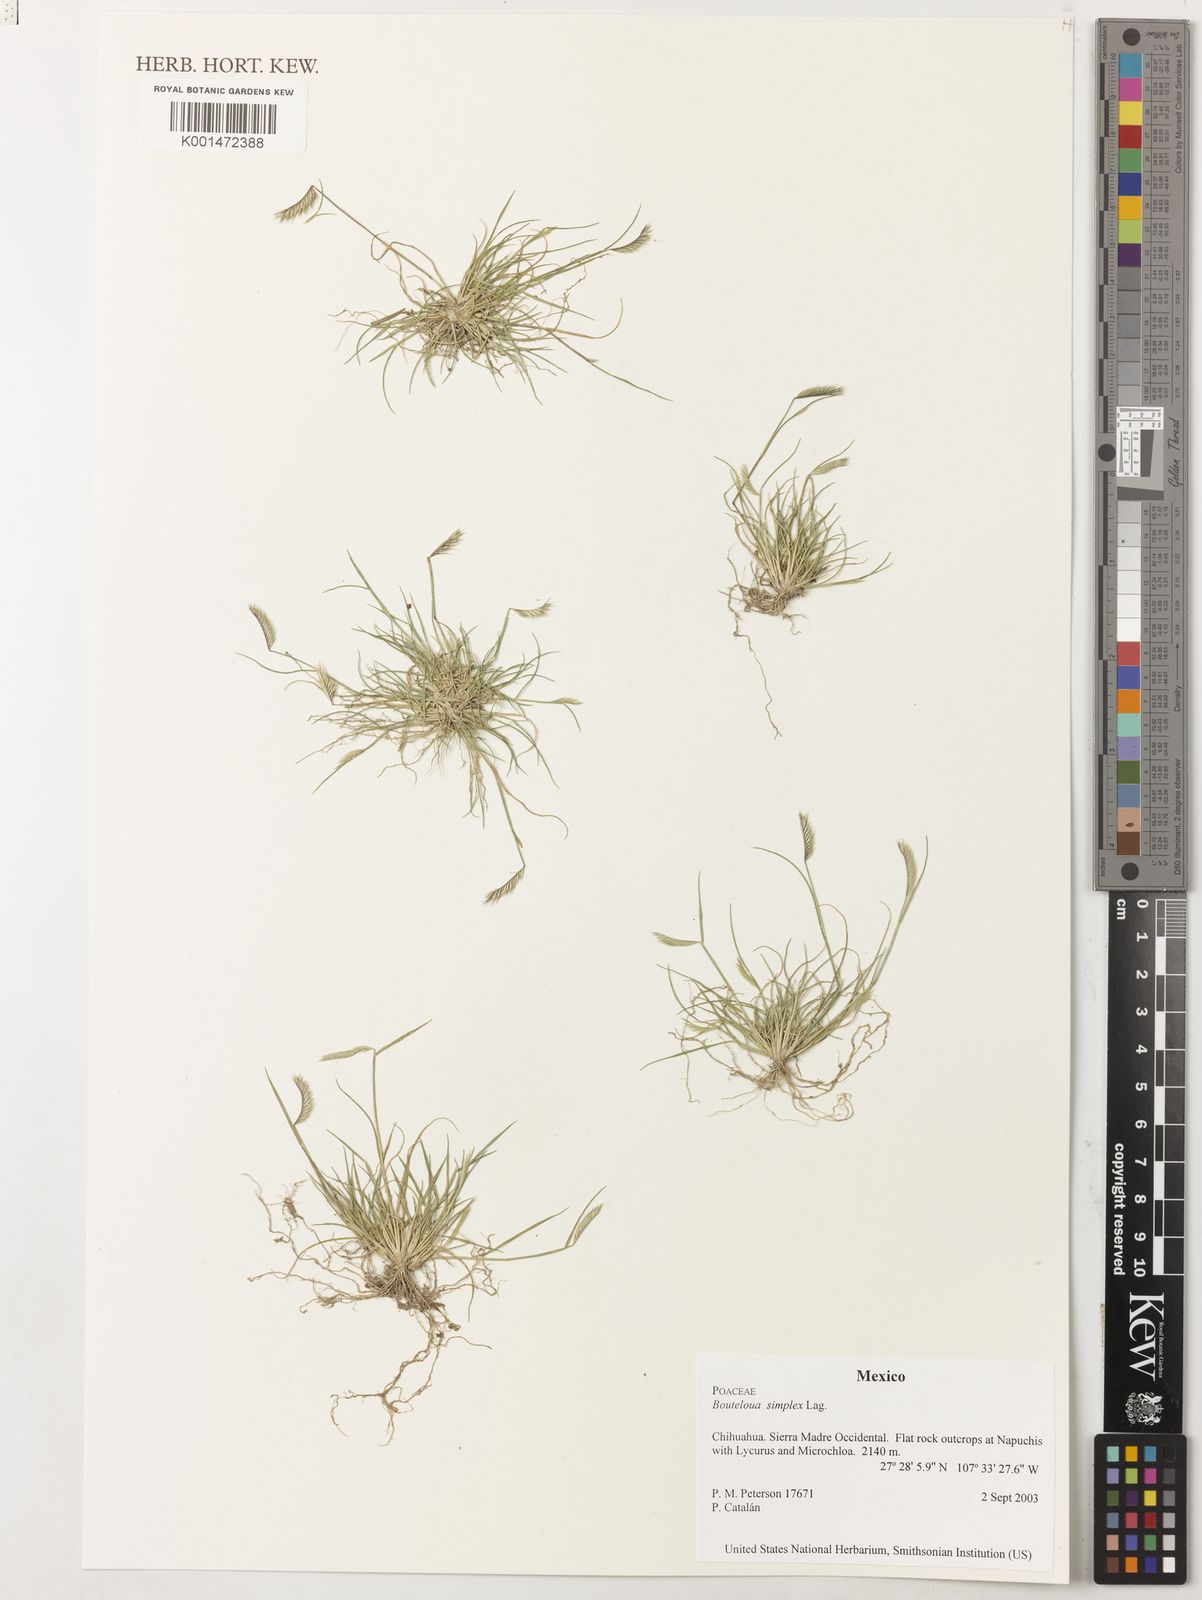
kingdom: Plantae
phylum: Tracheophyta
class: Liliopsida
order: Poales
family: Poaceae
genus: Bouteloua
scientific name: Bouteloua simplex
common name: Mat grama
